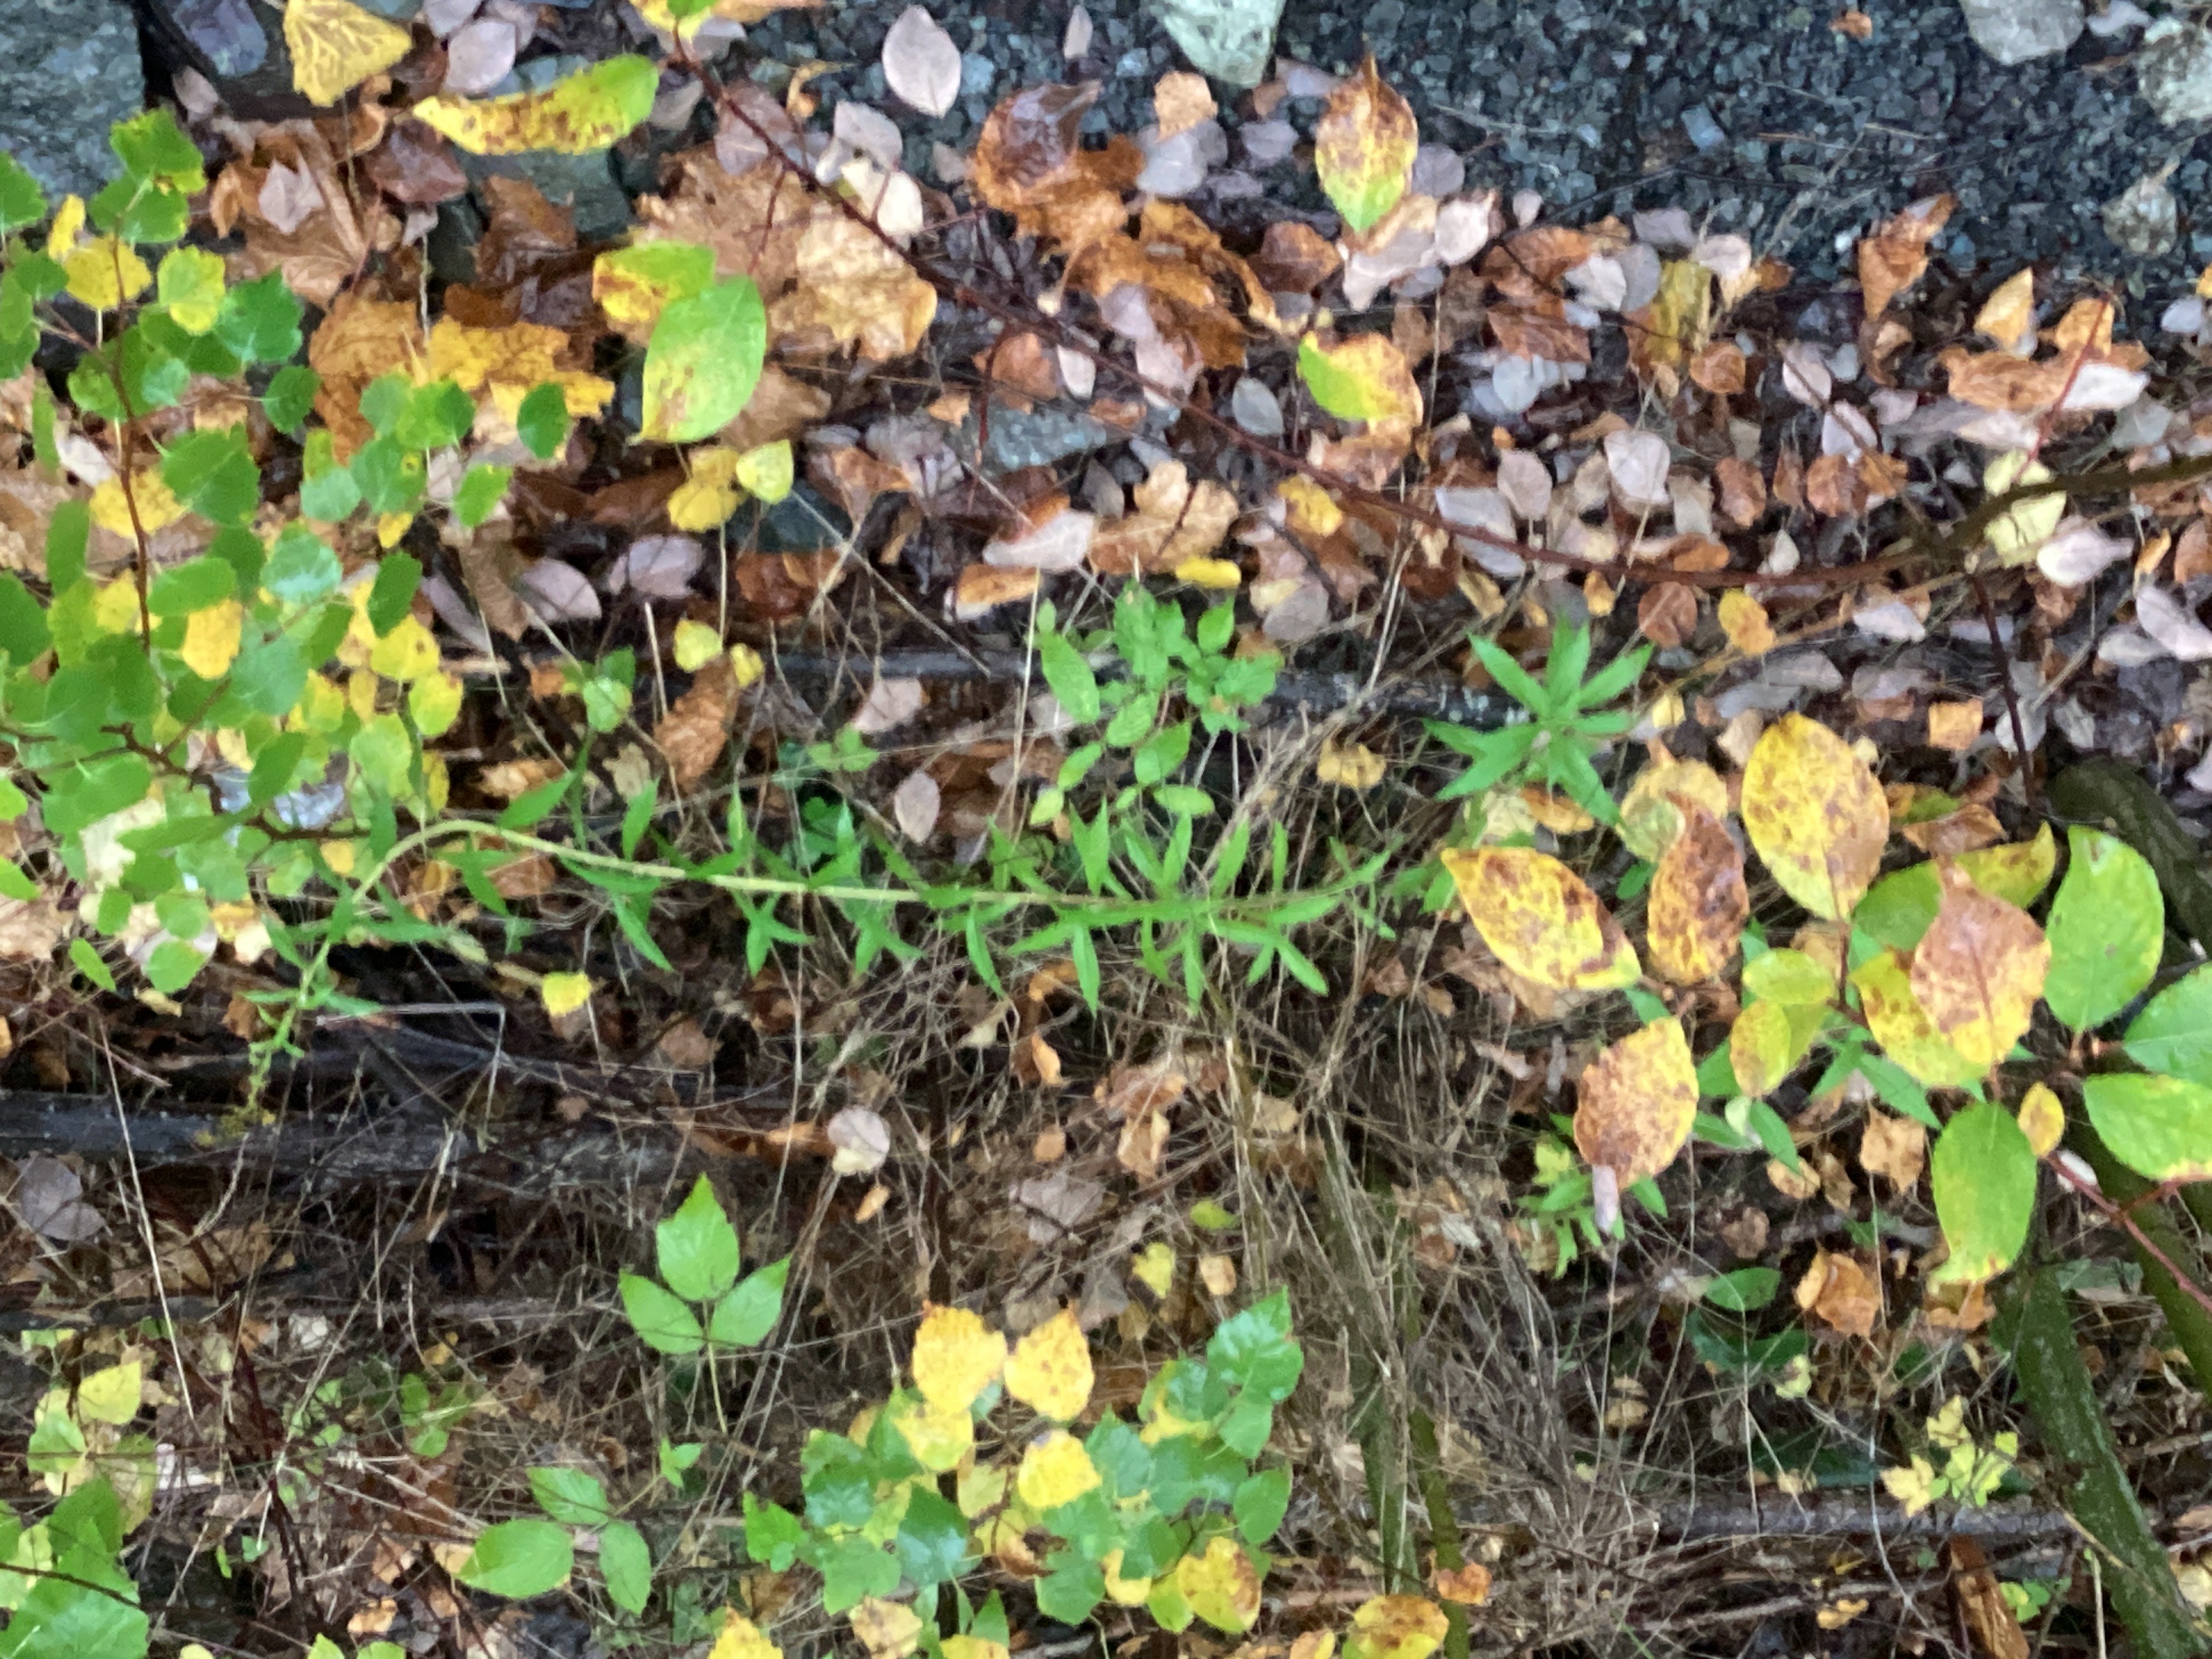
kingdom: Plantae
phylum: Tracheophyta
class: Magnoliopsida
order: Asterales
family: Asteraceae
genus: Solidago
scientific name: Solidago canadensis
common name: kanadagullris
